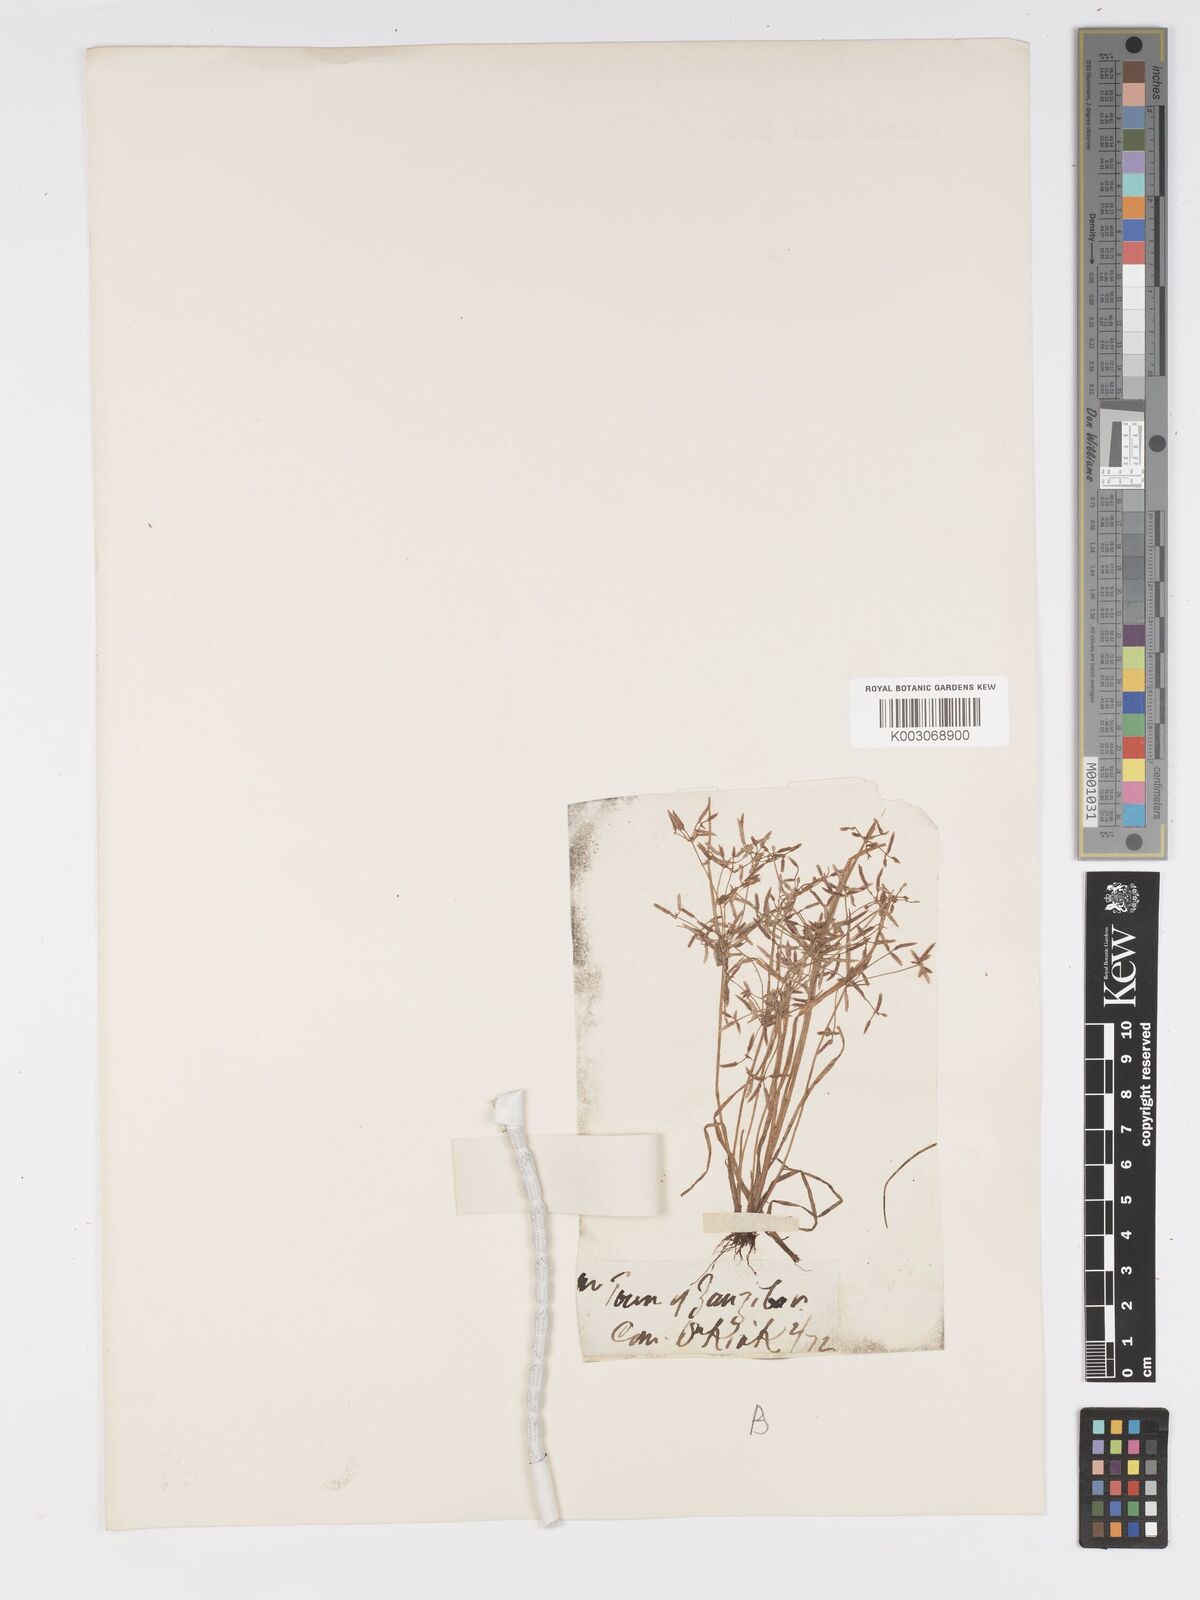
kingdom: Plantae
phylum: Tracheophyta
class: Liliopsida
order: Poales
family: Cyperaceae
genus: Cyperus
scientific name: Cyperus tenuispica
